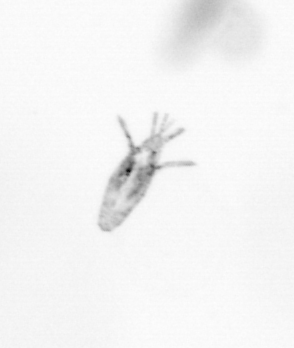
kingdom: Animalia
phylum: Arthropoda
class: Copepoda
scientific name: Copepoda
